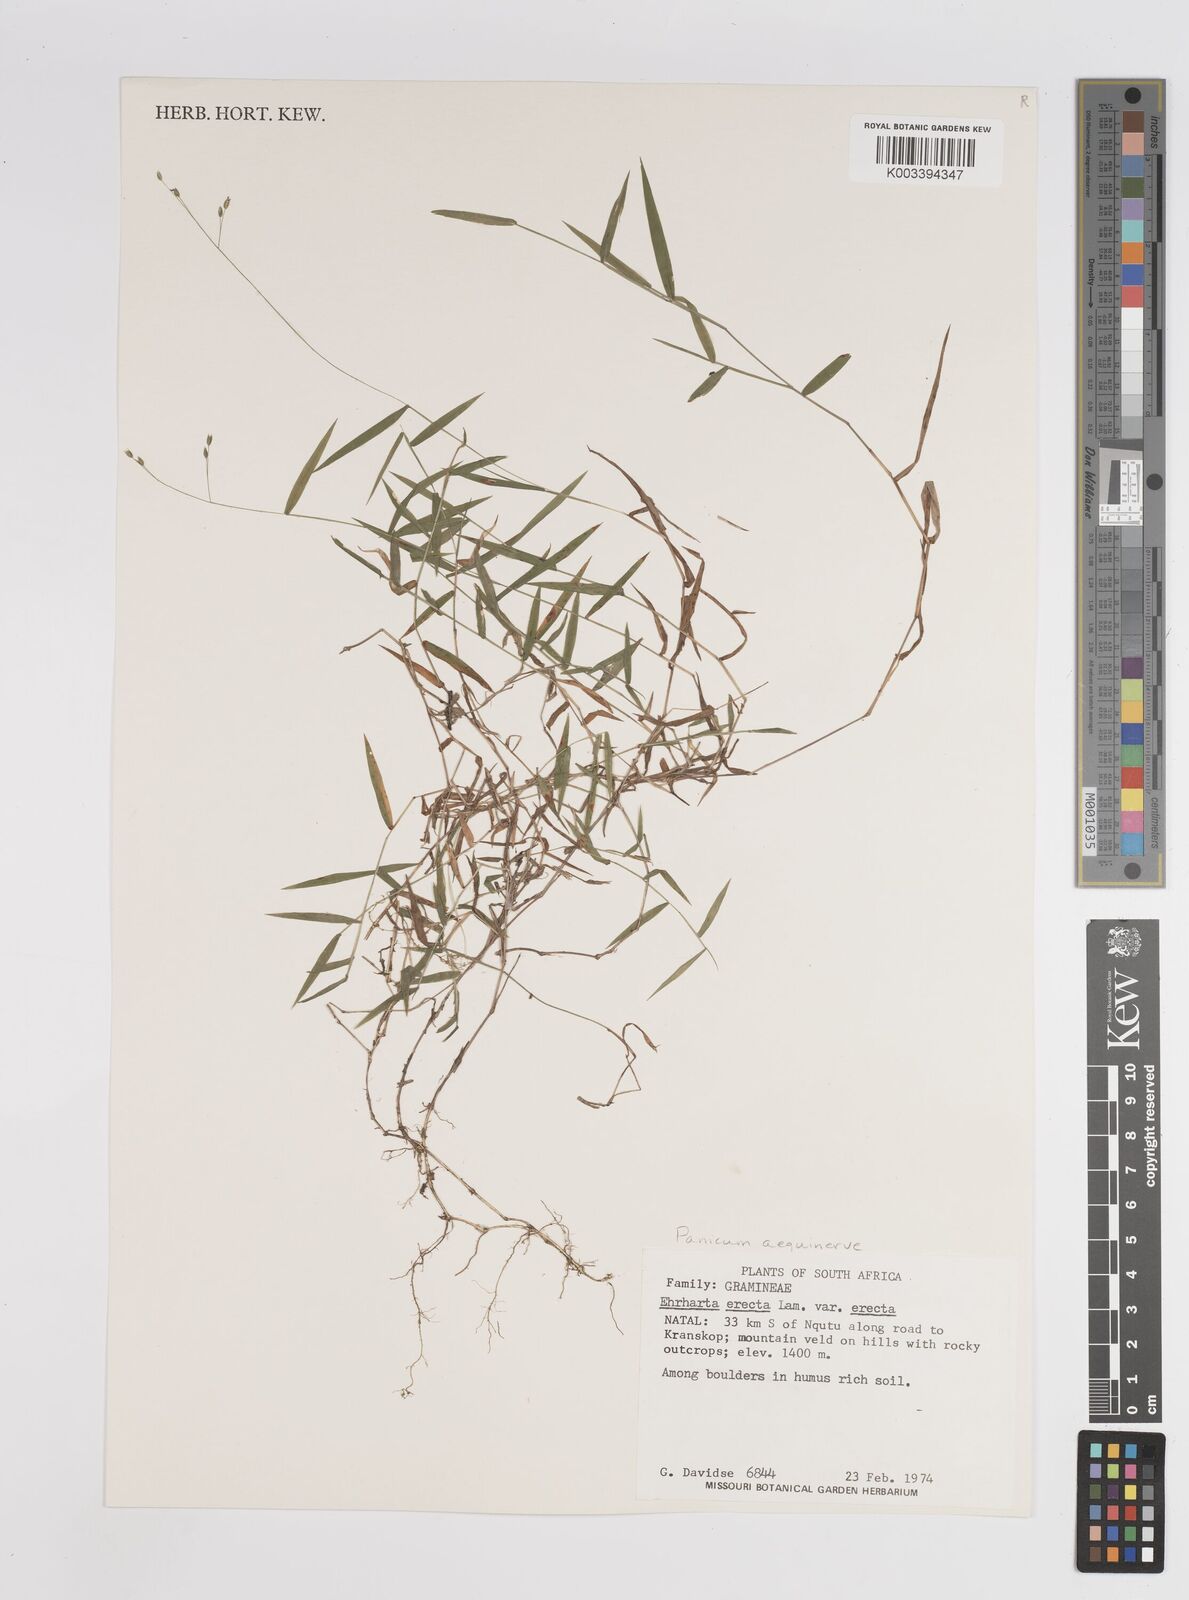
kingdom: Plantae
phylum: Tracheophyta
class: Liliopsida
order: Poales
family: Poaceae
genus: Panicum
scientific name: Panicum aequinerve
